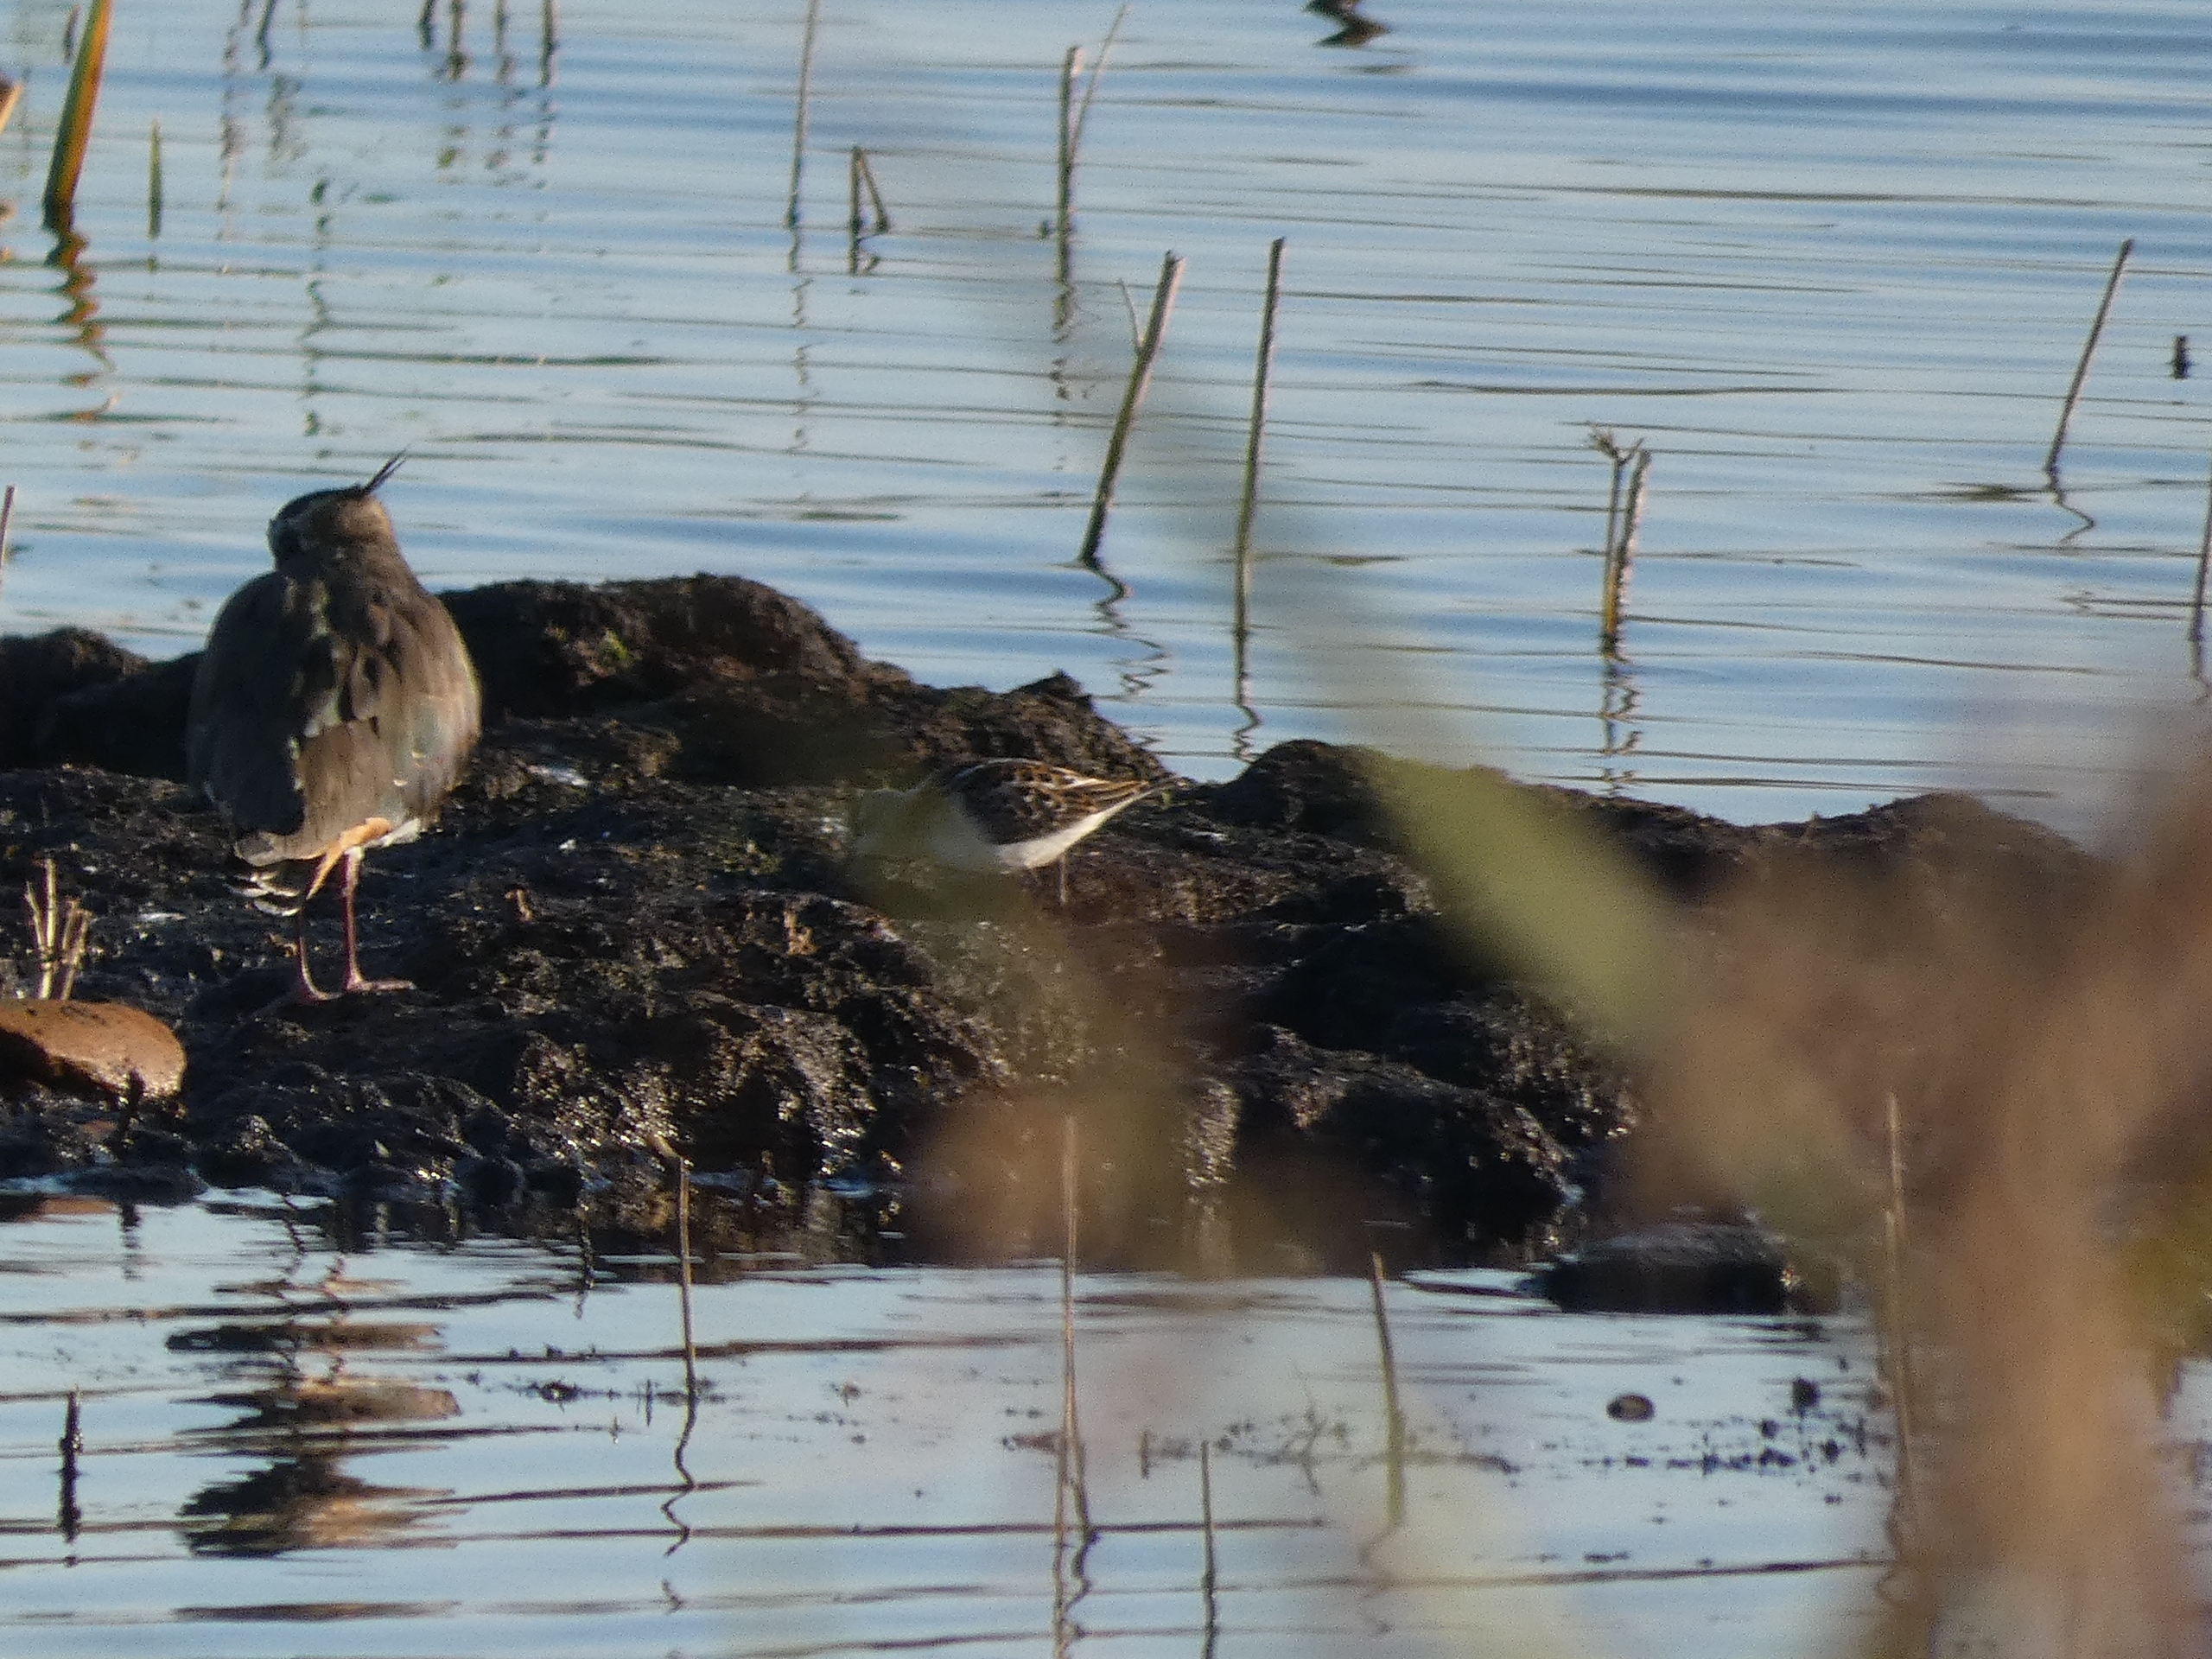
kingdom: Animalia
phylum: Chordata
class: Aves
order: Charadriiformes
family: Scolopacidae
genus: Calidris
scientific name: Calidris minuta
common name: Dværgryle
